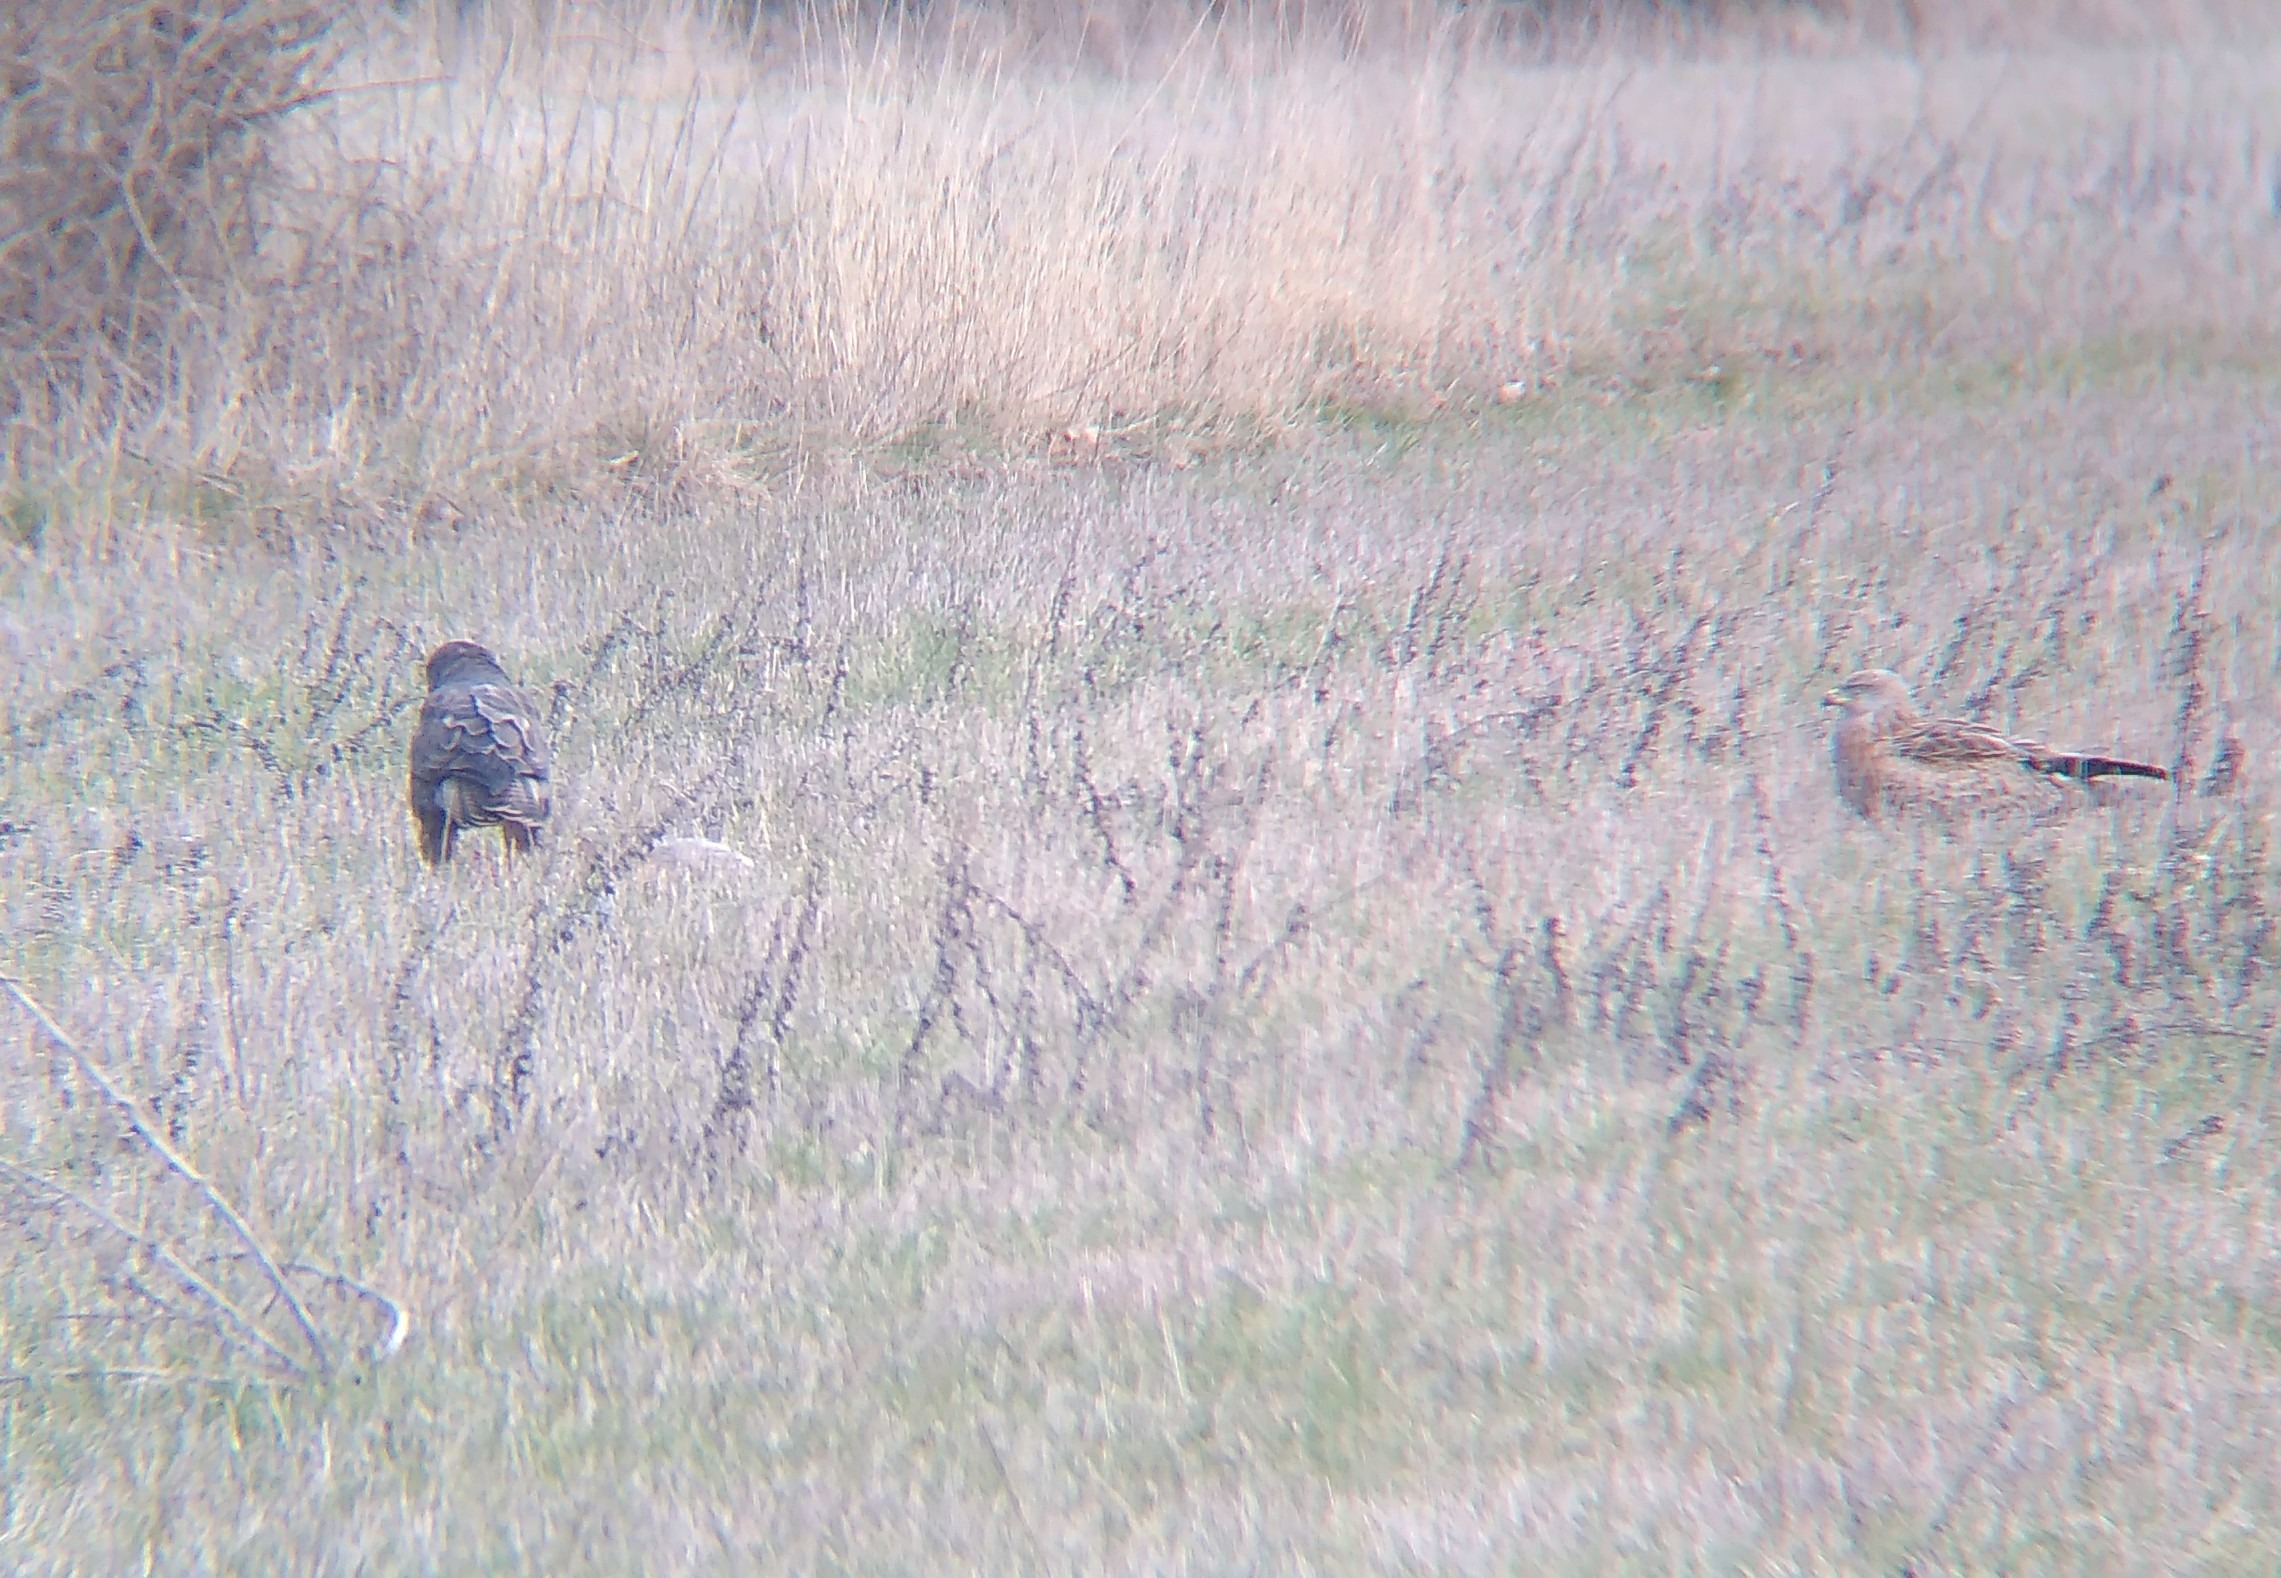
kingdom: Animalia
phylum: Chordata
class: Aves
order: Accipitriformes
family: Accipitridae
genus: Milvus
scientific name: Milvus milvus
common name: Rød glente
